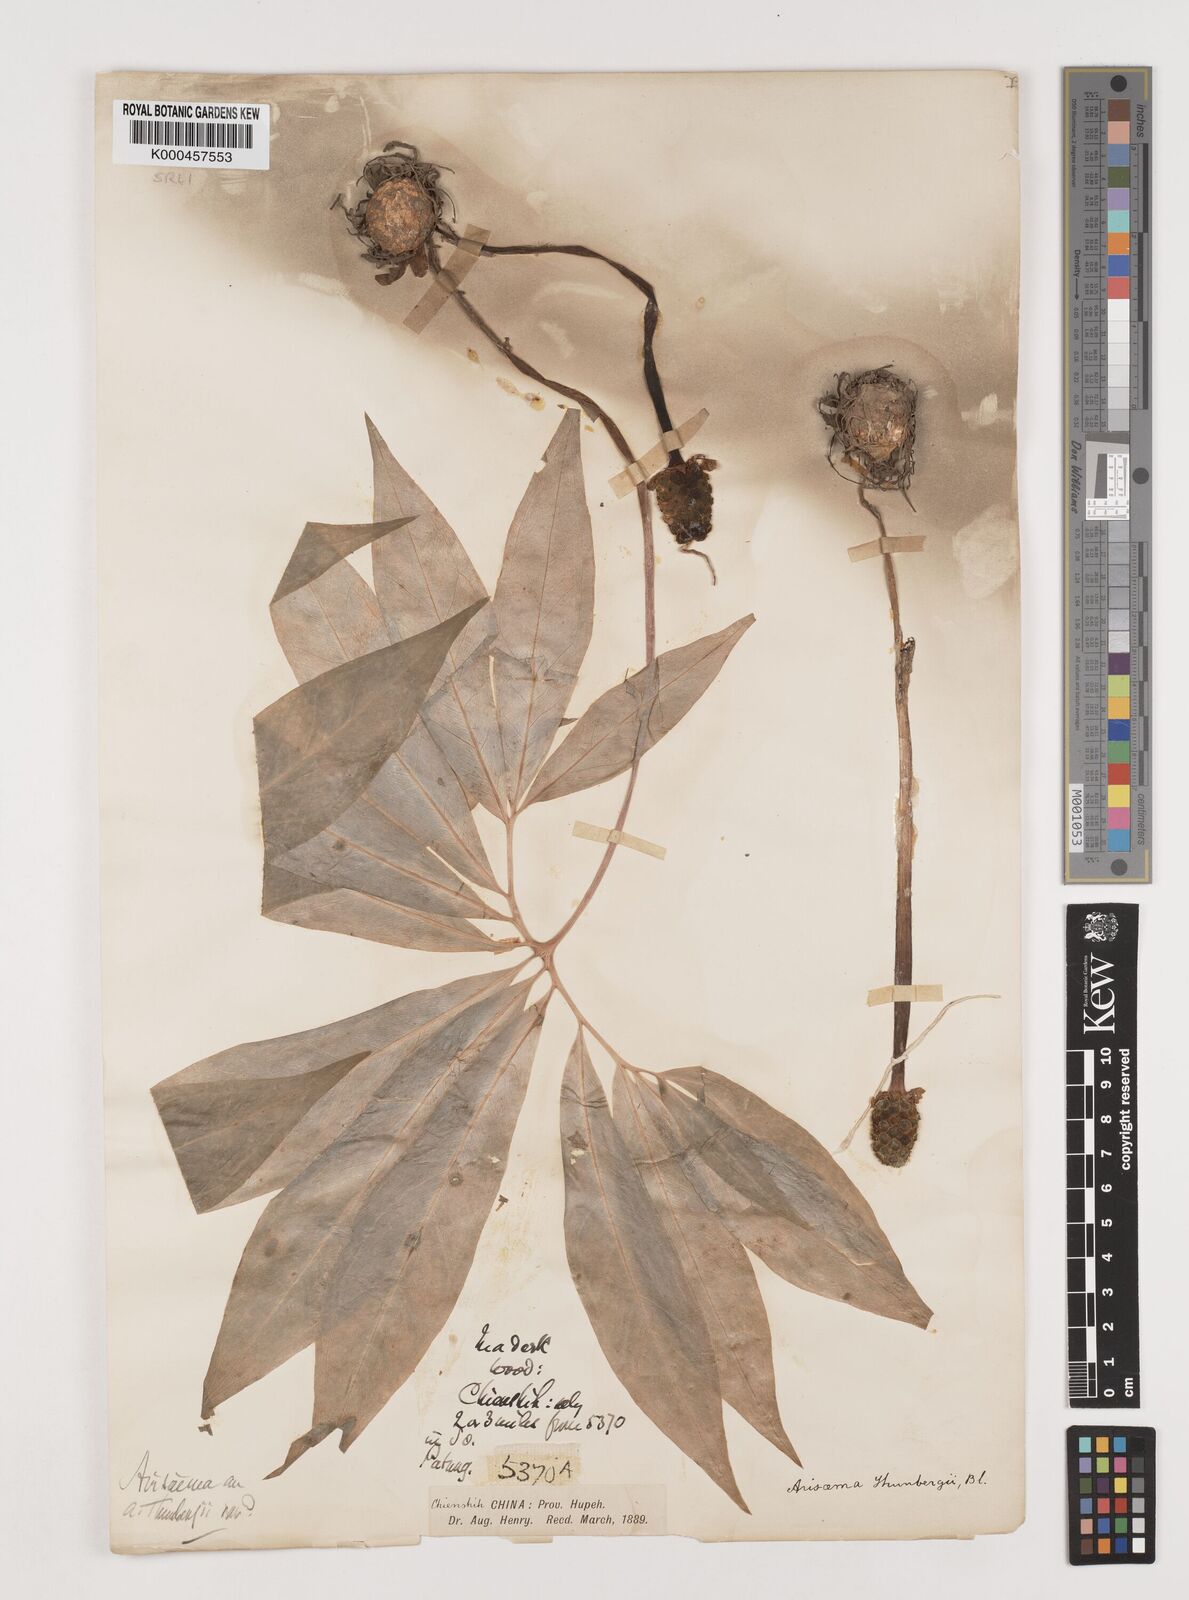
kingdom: Plantae
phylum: Tracheophyta
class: Liliopsida
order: Alismatales
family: Araceae
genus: Arisaema
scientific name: Arisaema heterophyllum
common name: Dancing crane cobra lily
